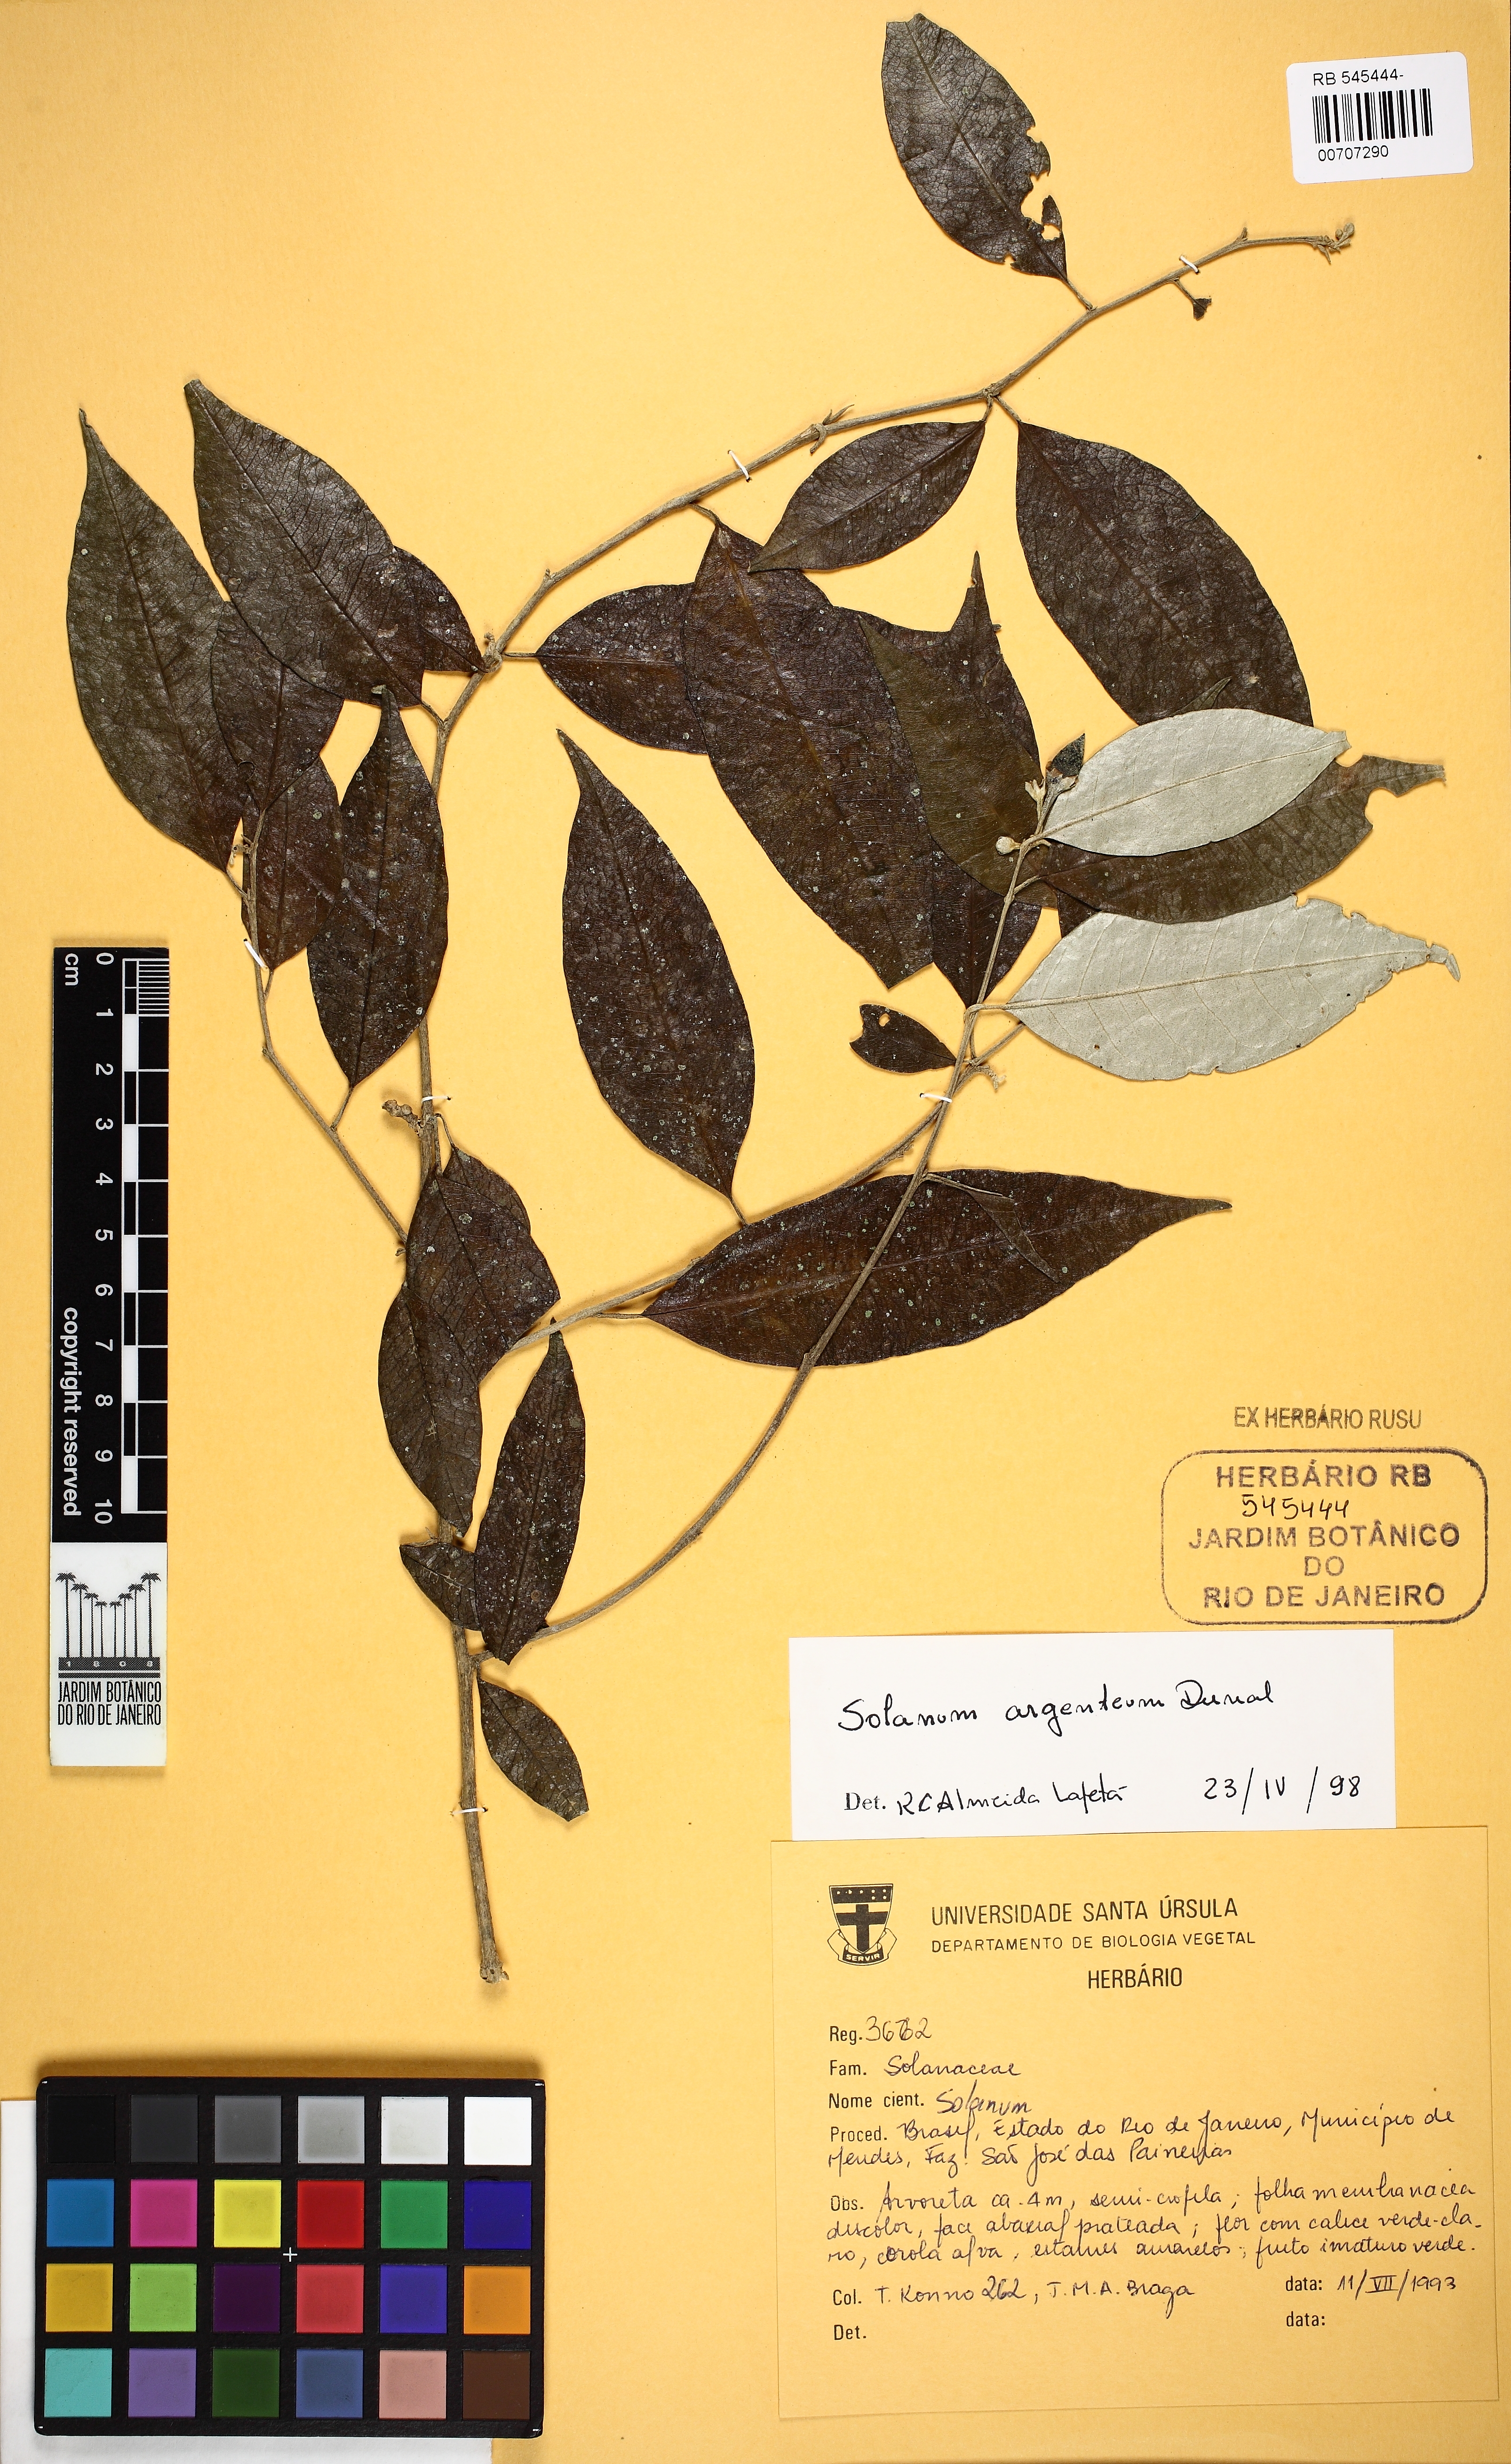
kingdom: Plantae
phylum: Tracheophyta
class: Magnoliopsida
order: Solanales
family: Solanaceae
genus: Solanum
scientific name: Solanum swartzianum
